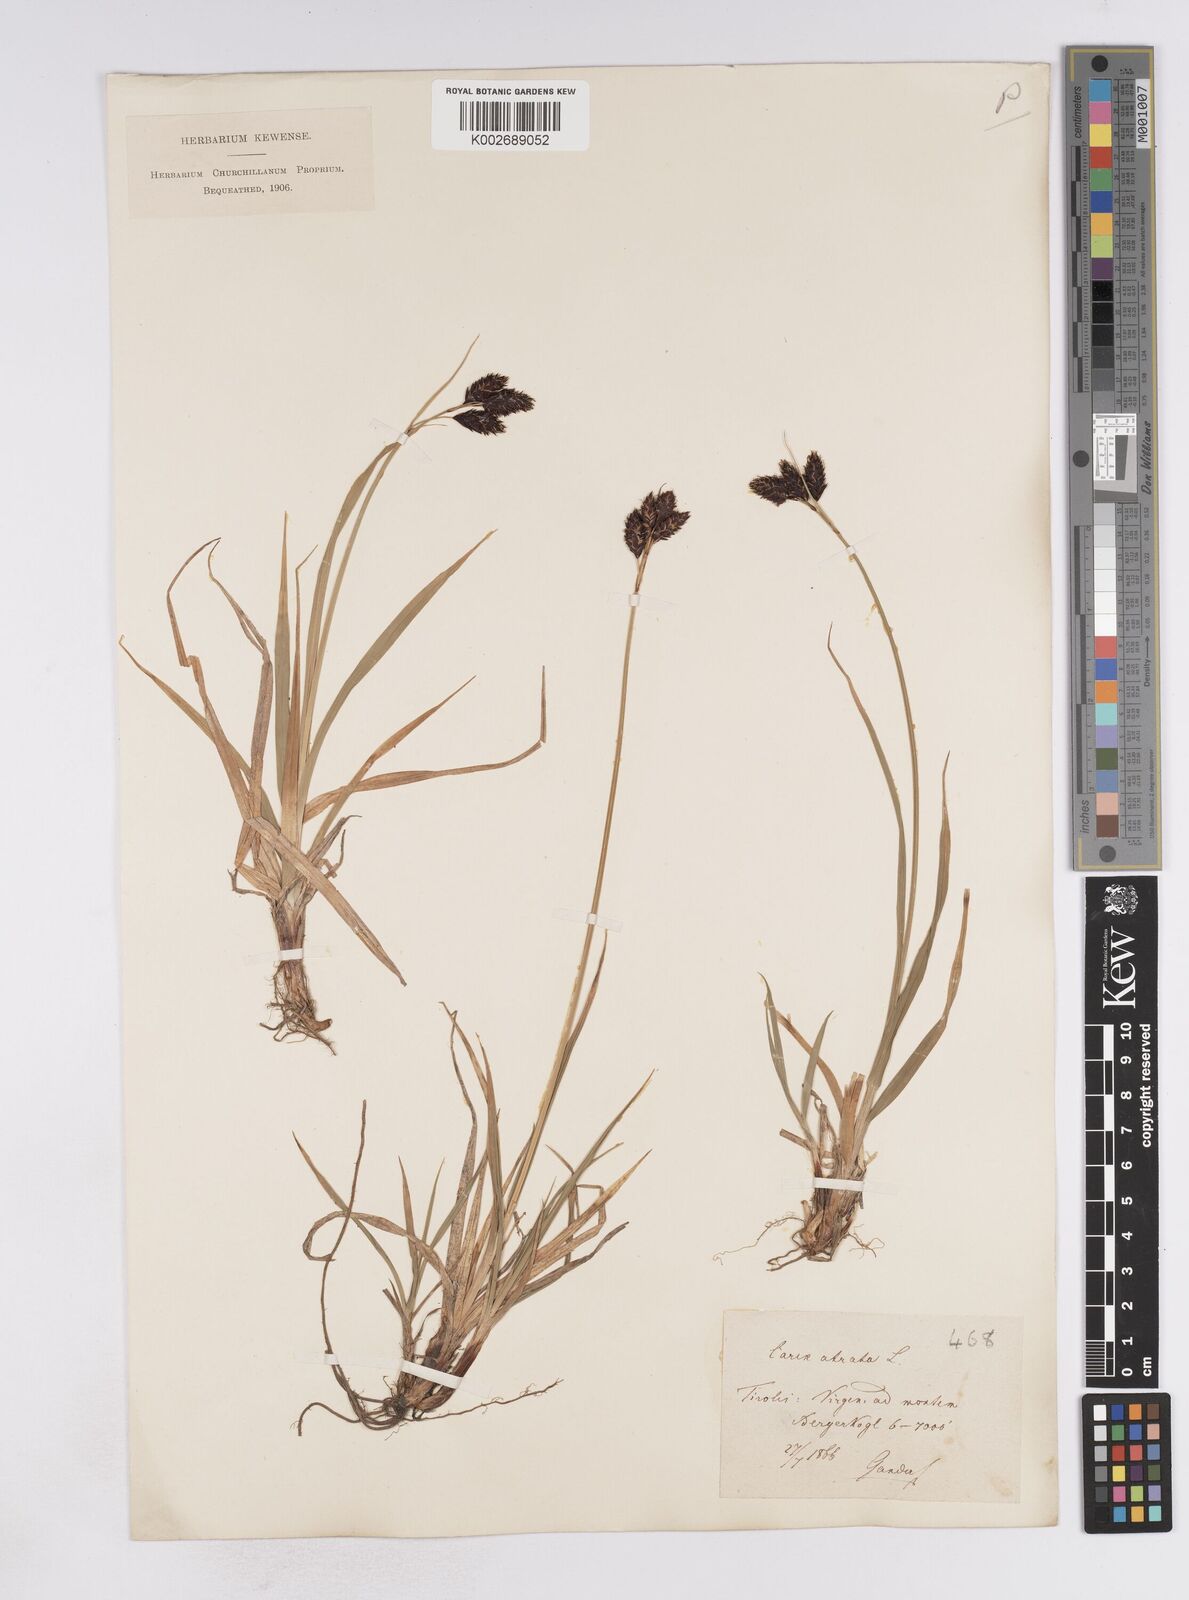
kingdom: Plantae
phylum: Tracheophyta
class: Liliopsida
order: Poales
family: Cyperaceae
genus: Carex
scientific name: Carex atrata
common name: Black alpine sedge
